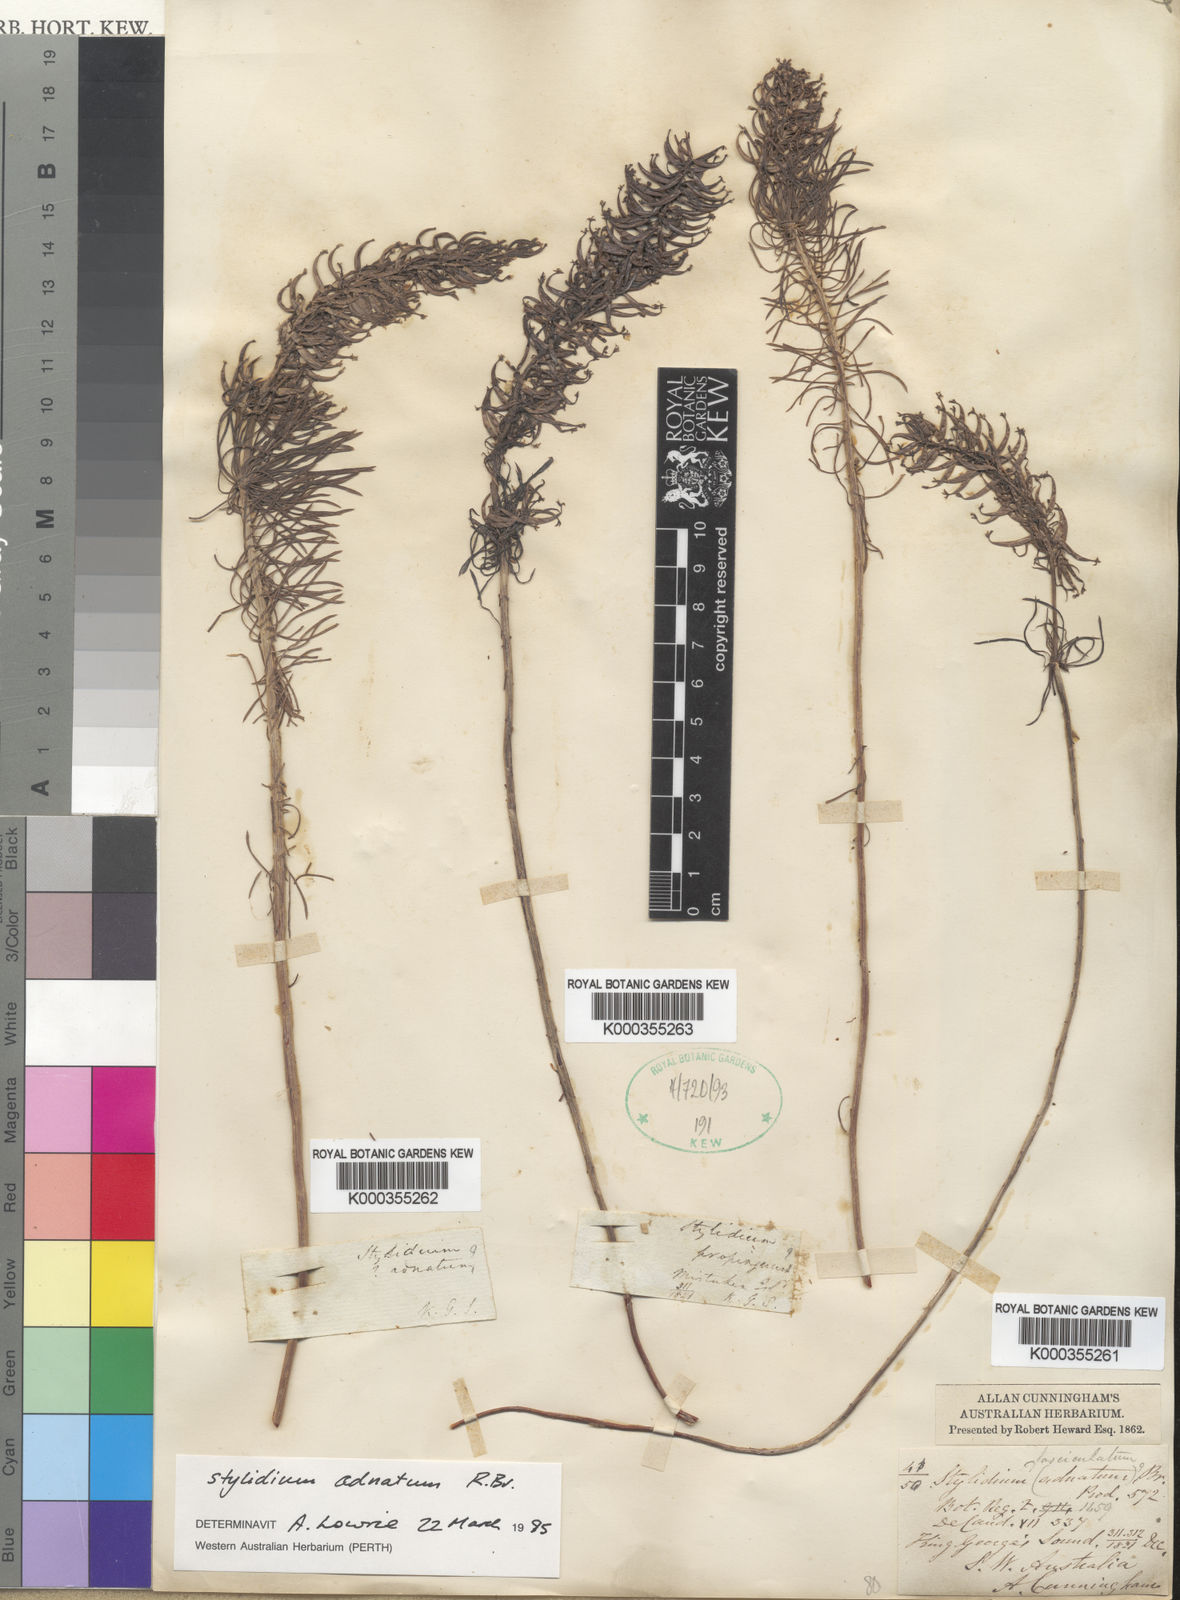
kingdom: Plantae
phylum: Tracheophyta
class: Magnoliopsida
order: Asterales
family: Stylidiaceae
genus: Stylidium
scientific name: Stylidium adnatum
